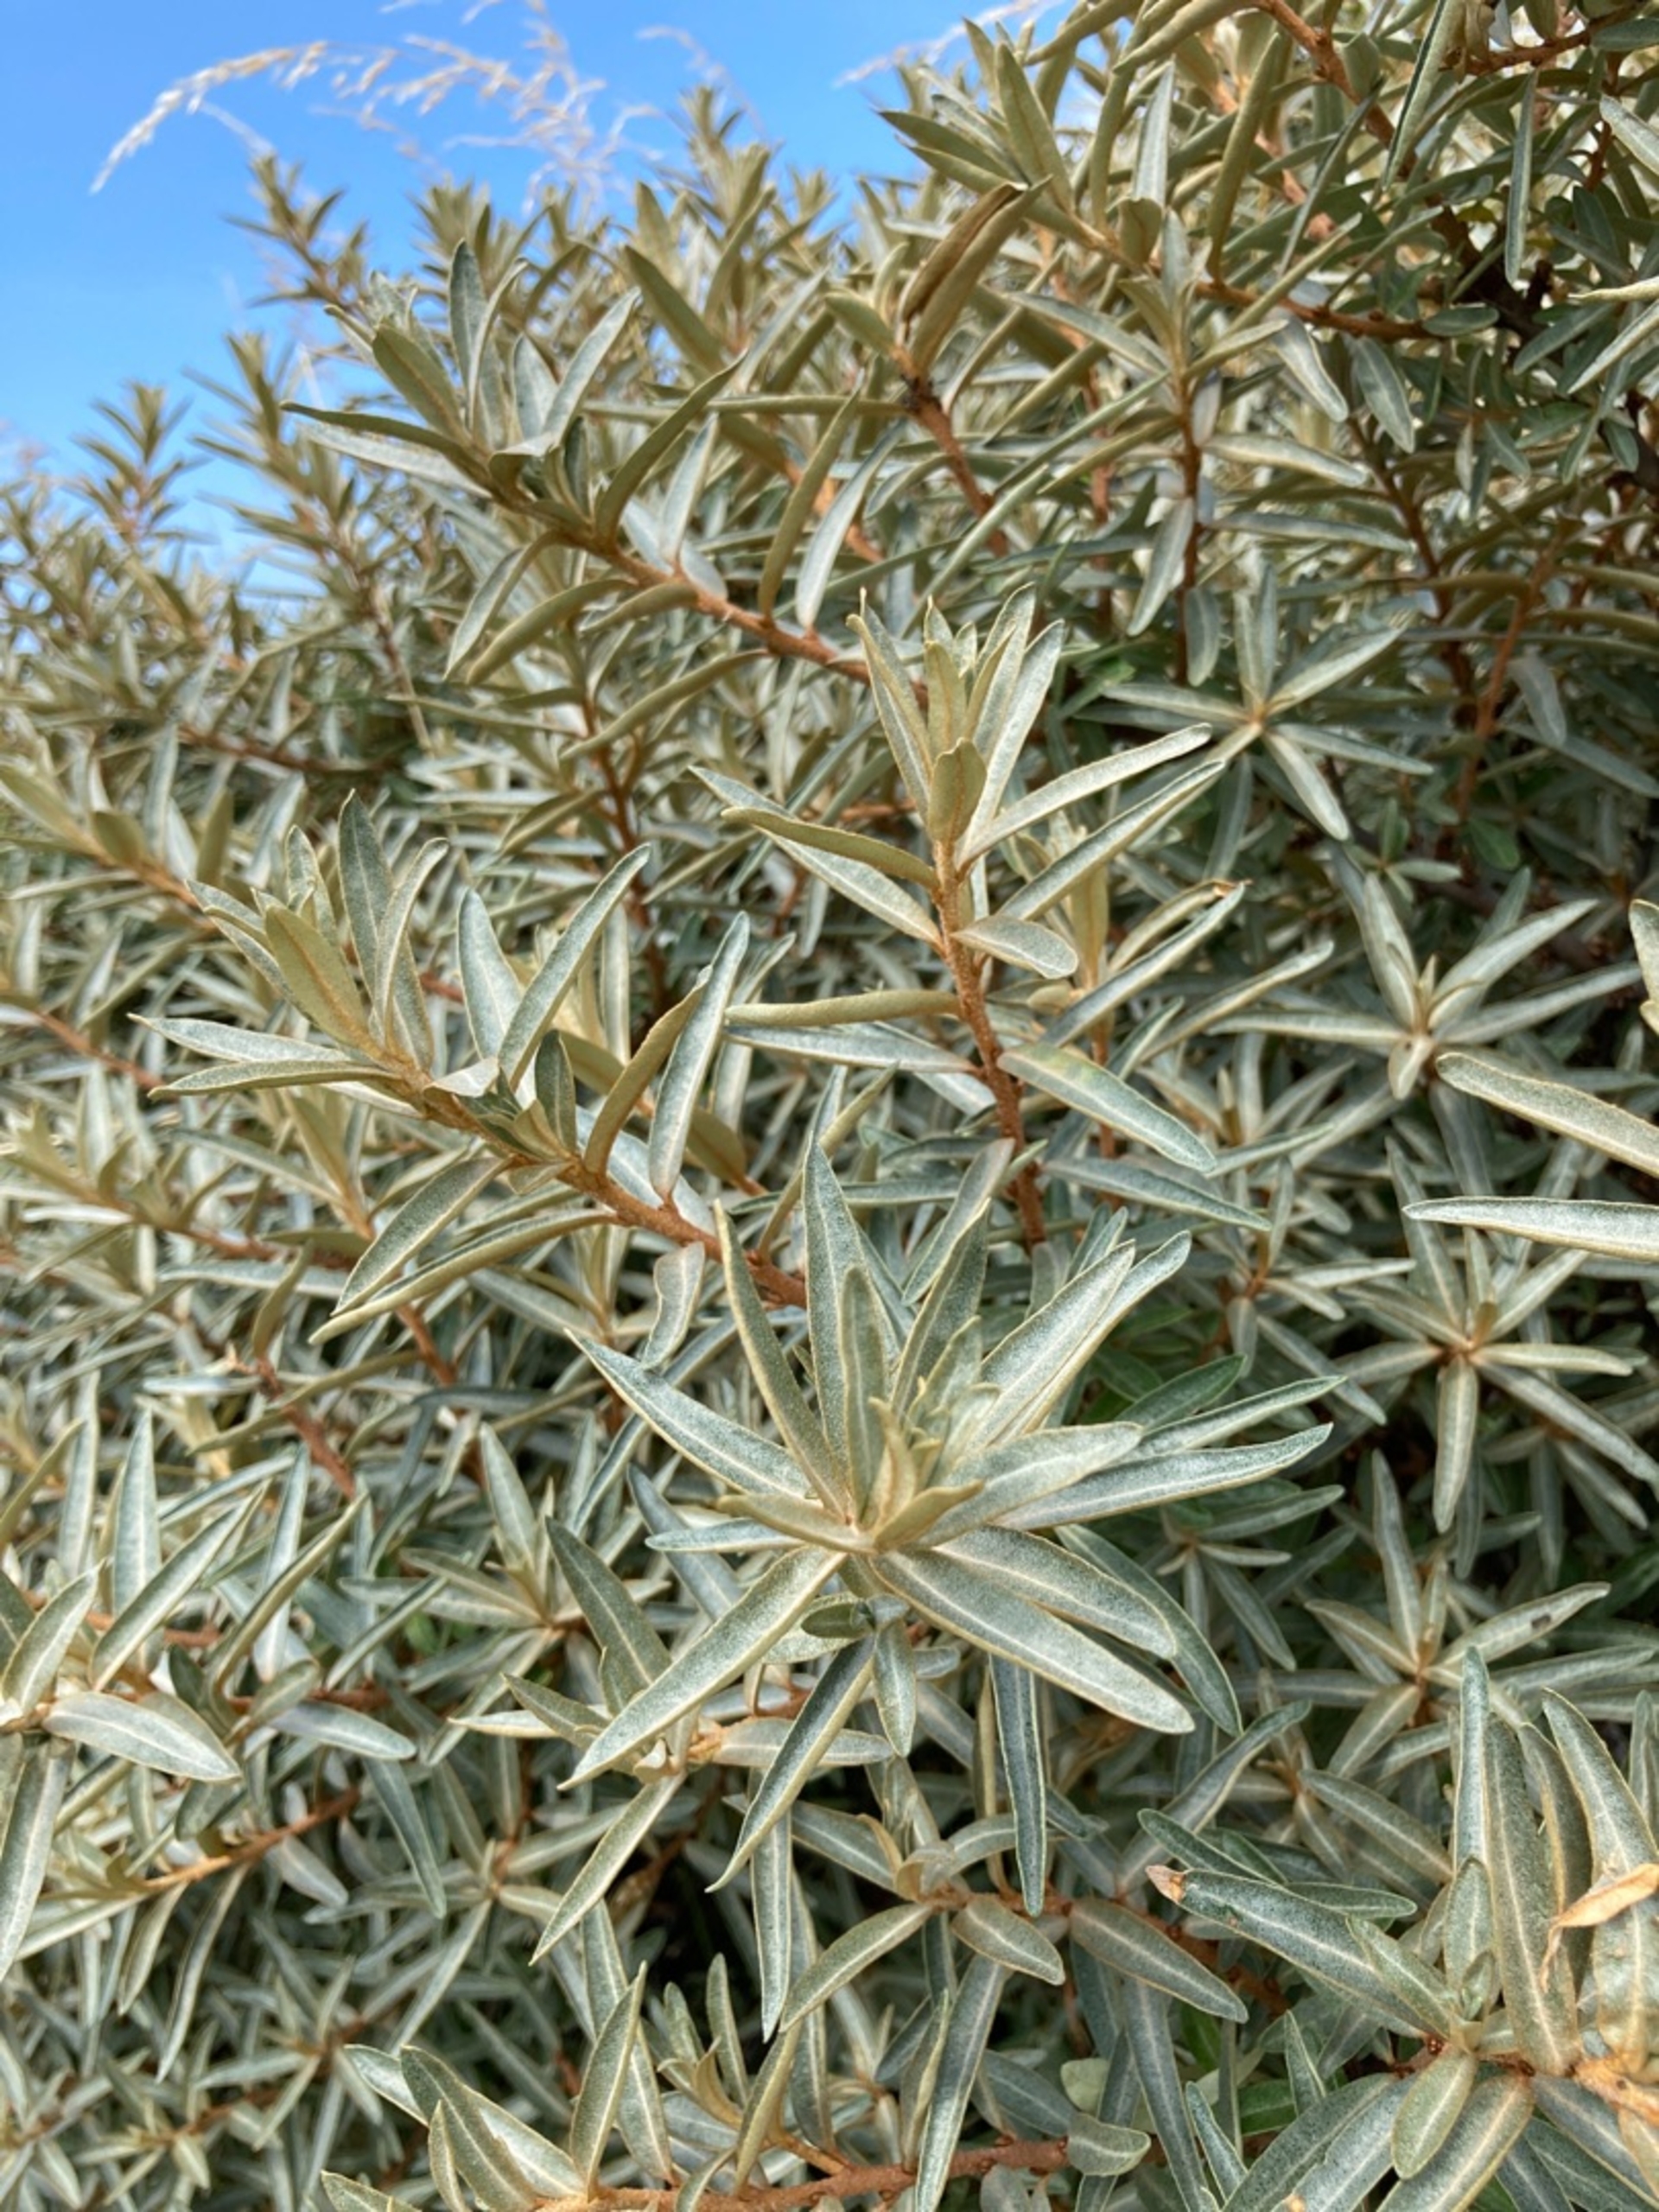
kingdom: Plantae
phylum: Tracheophyta
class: Magnoliopsida
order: Rosales
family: Elaeagnaceae
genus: Hippophae
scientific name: Hippophae rhamnoides
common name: Havtorn
